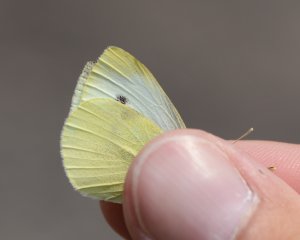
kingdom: Animalia
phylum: Arthropoda
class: Insecta
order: Lepidoptera
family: Pieridae
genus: Pieris
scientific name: Pieris rapae
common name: Cabbage White
